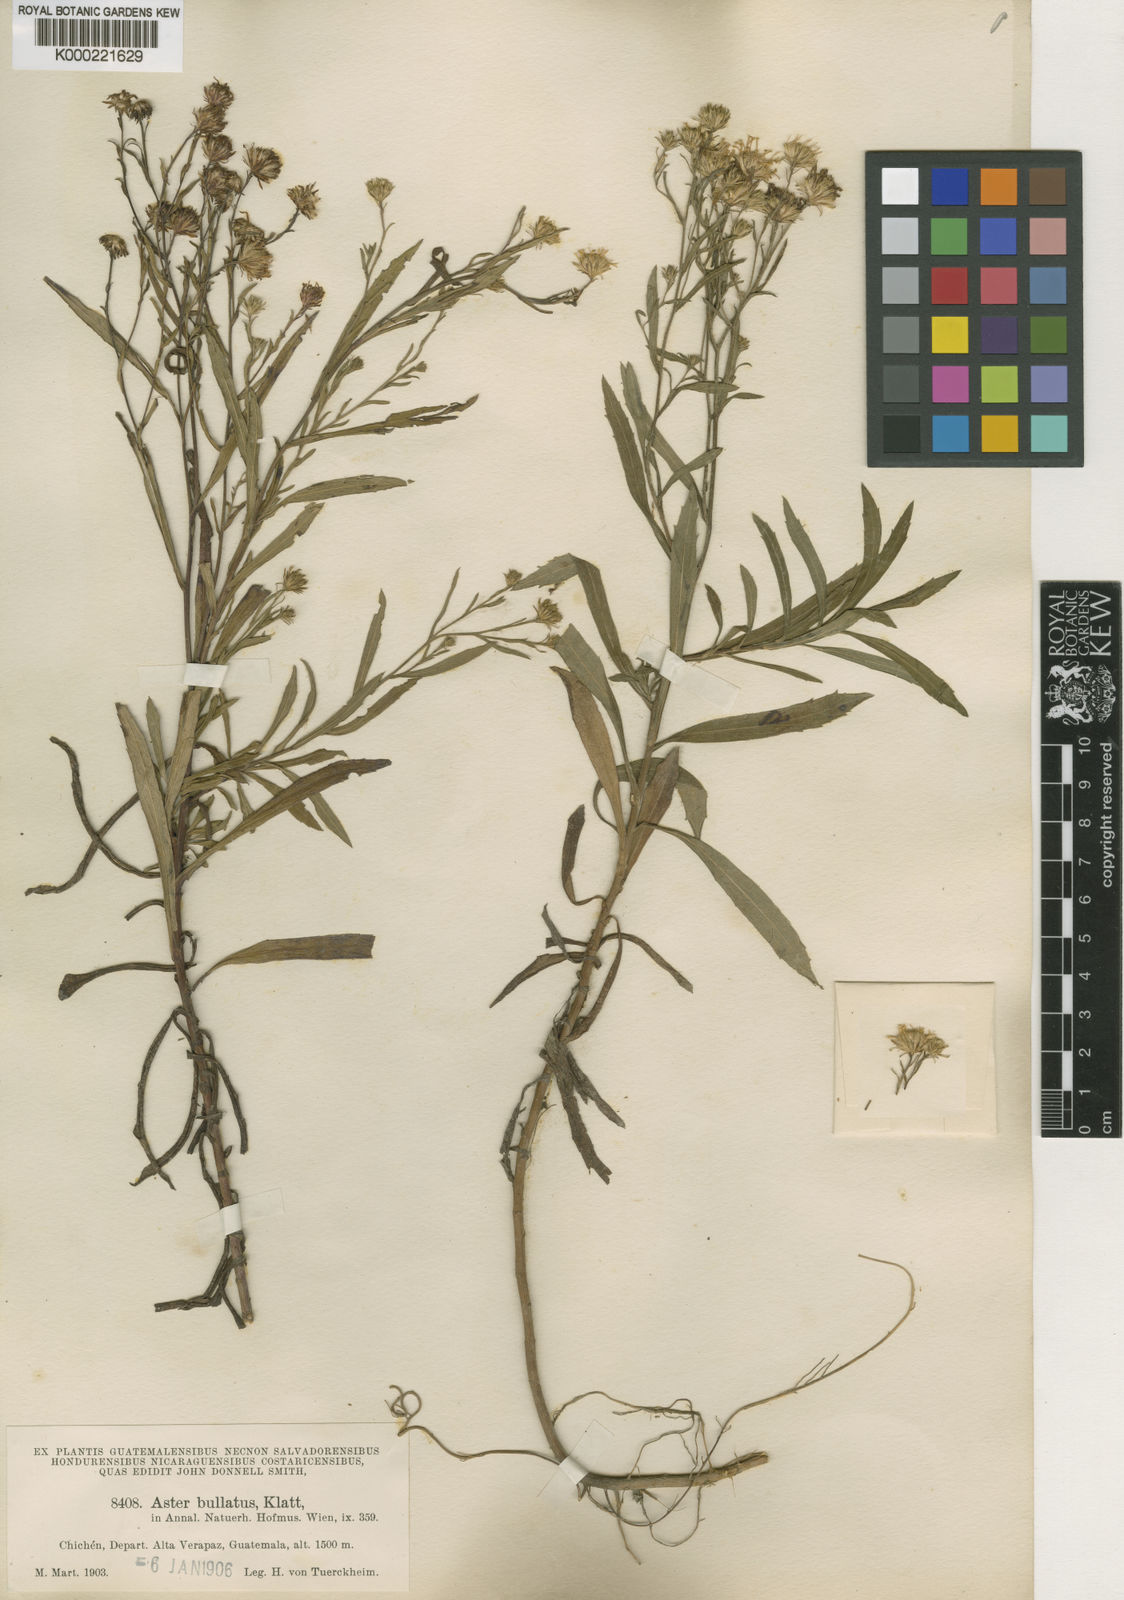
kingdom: Plantae
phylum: Tracheophyta
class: Magnoliopsida
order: Asterales
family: Asteraceae
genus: Symphyotrichum
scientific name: Symphyotrichum bullatum
